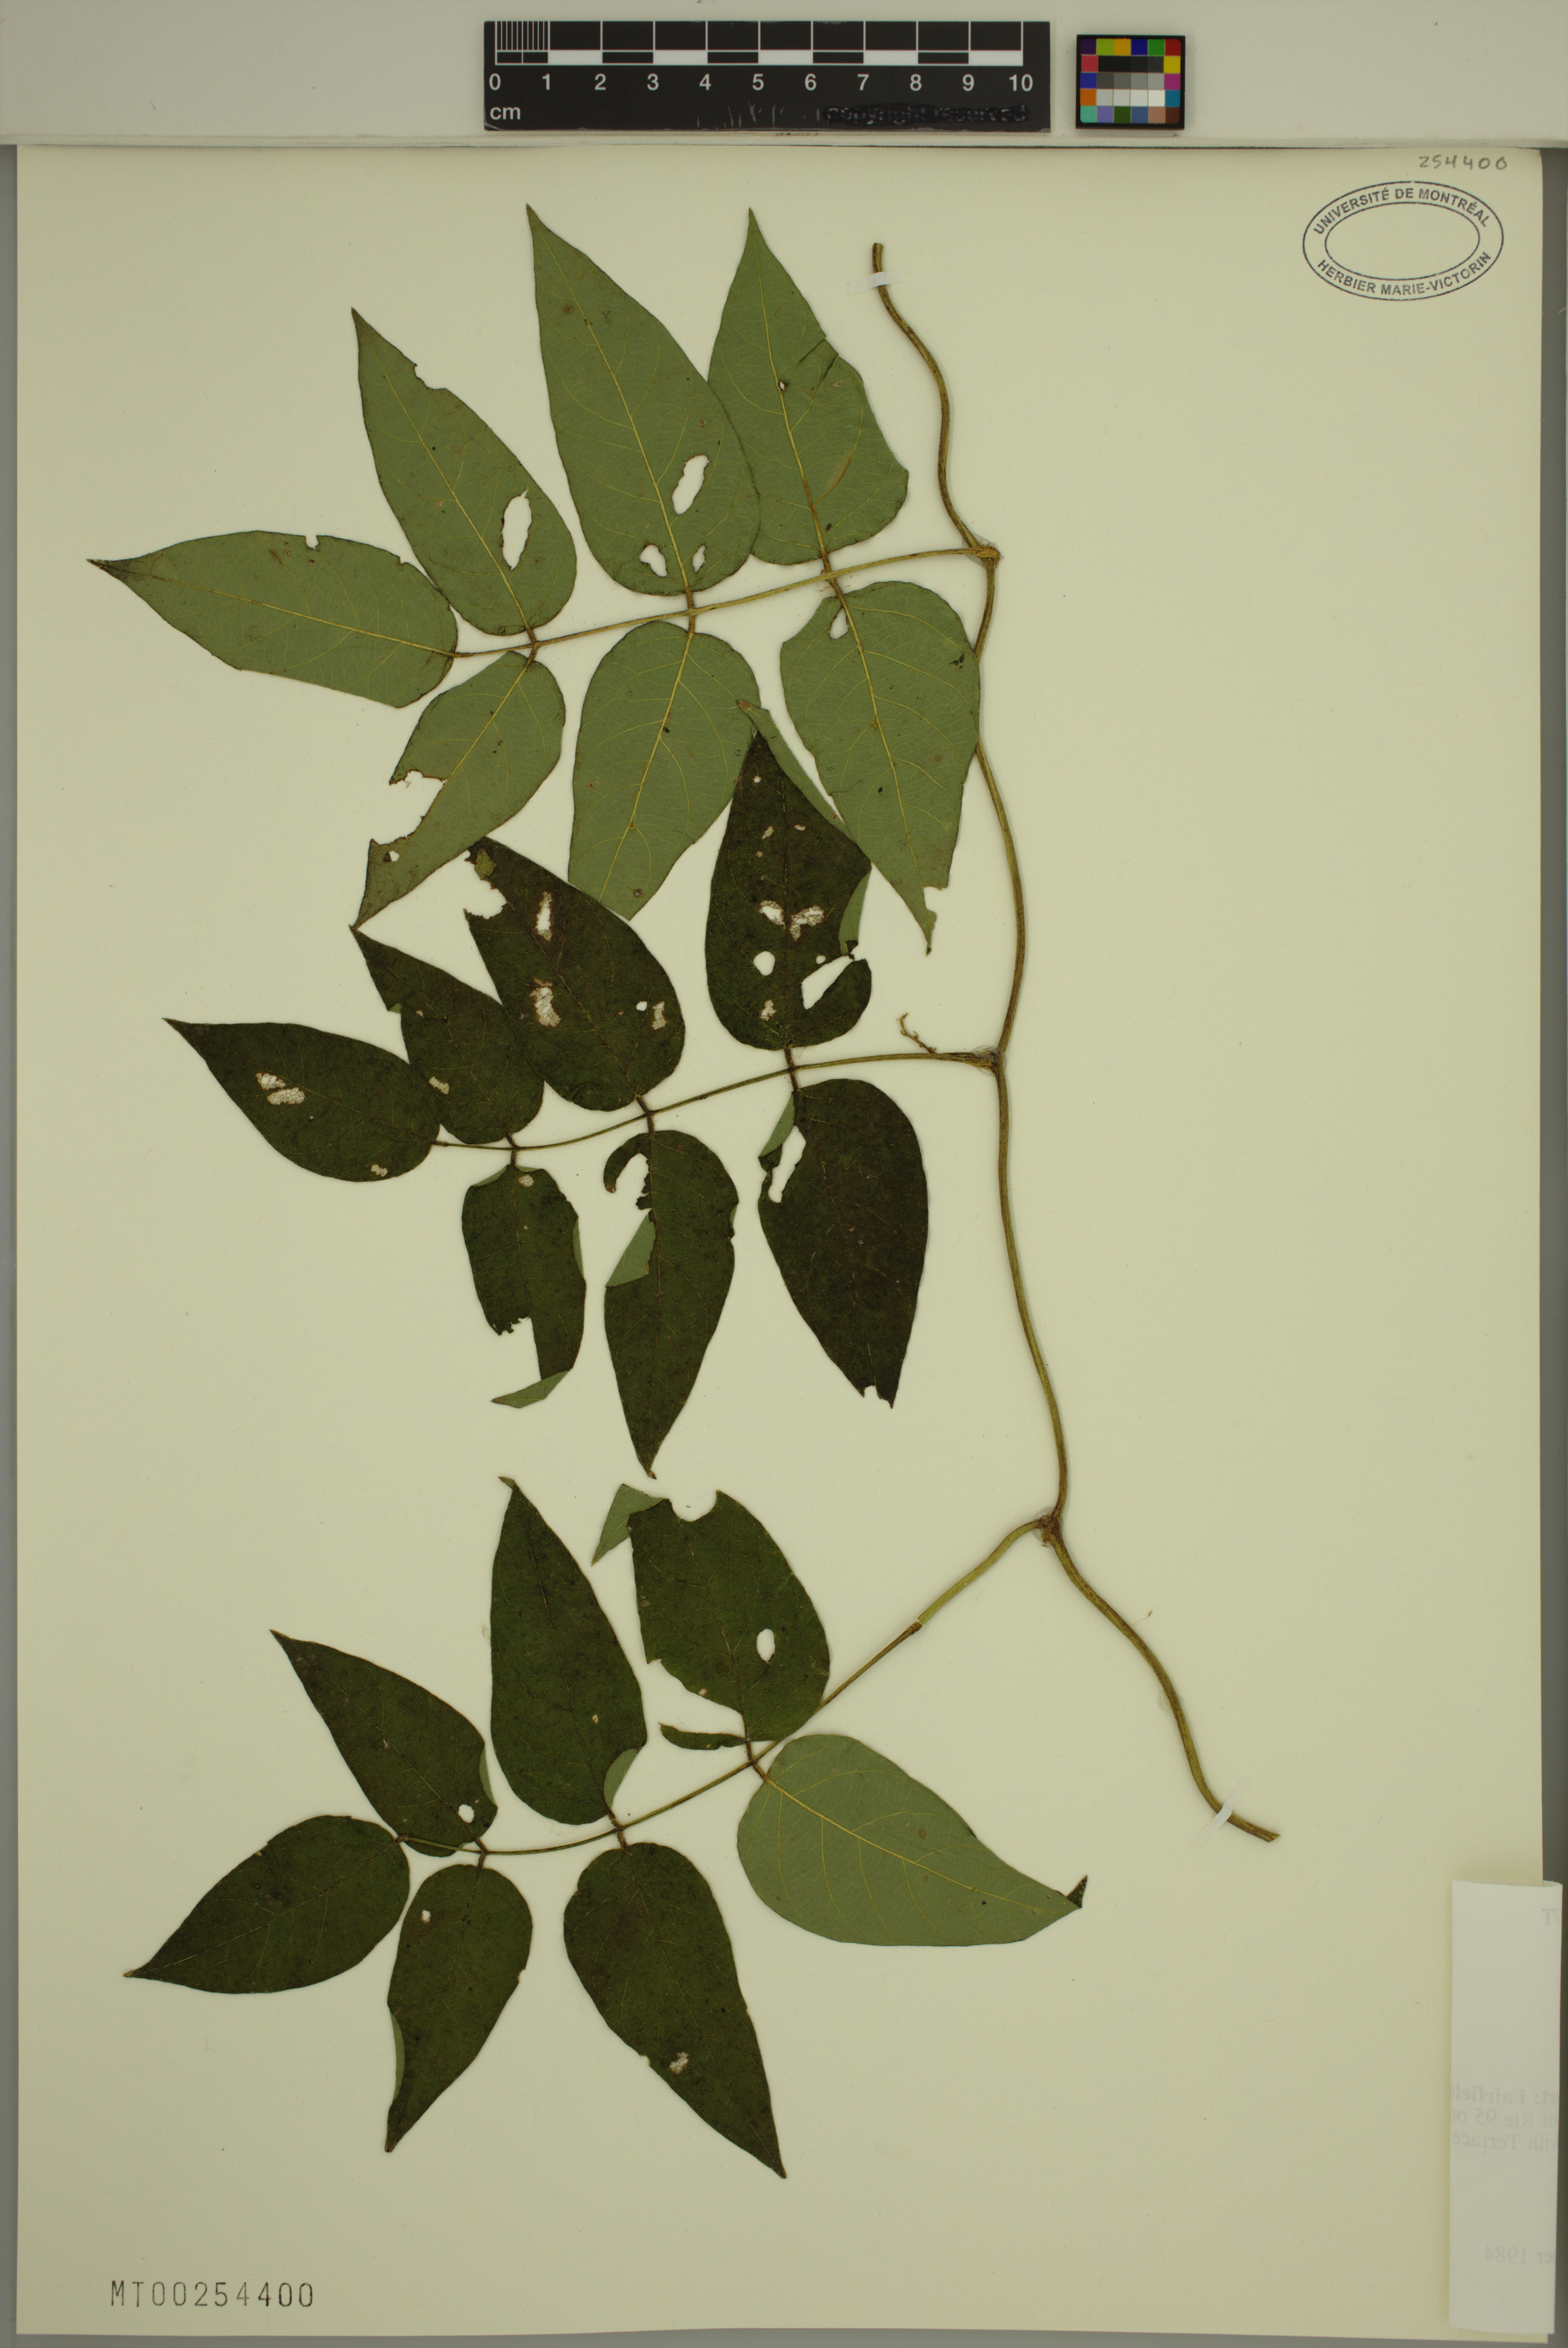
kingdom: Plantae
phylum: Tracheophyta
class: Magnoliopsida
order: Fabales
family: Fabaceae
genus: Apios
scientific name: Apios americana
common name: American potato-bean
